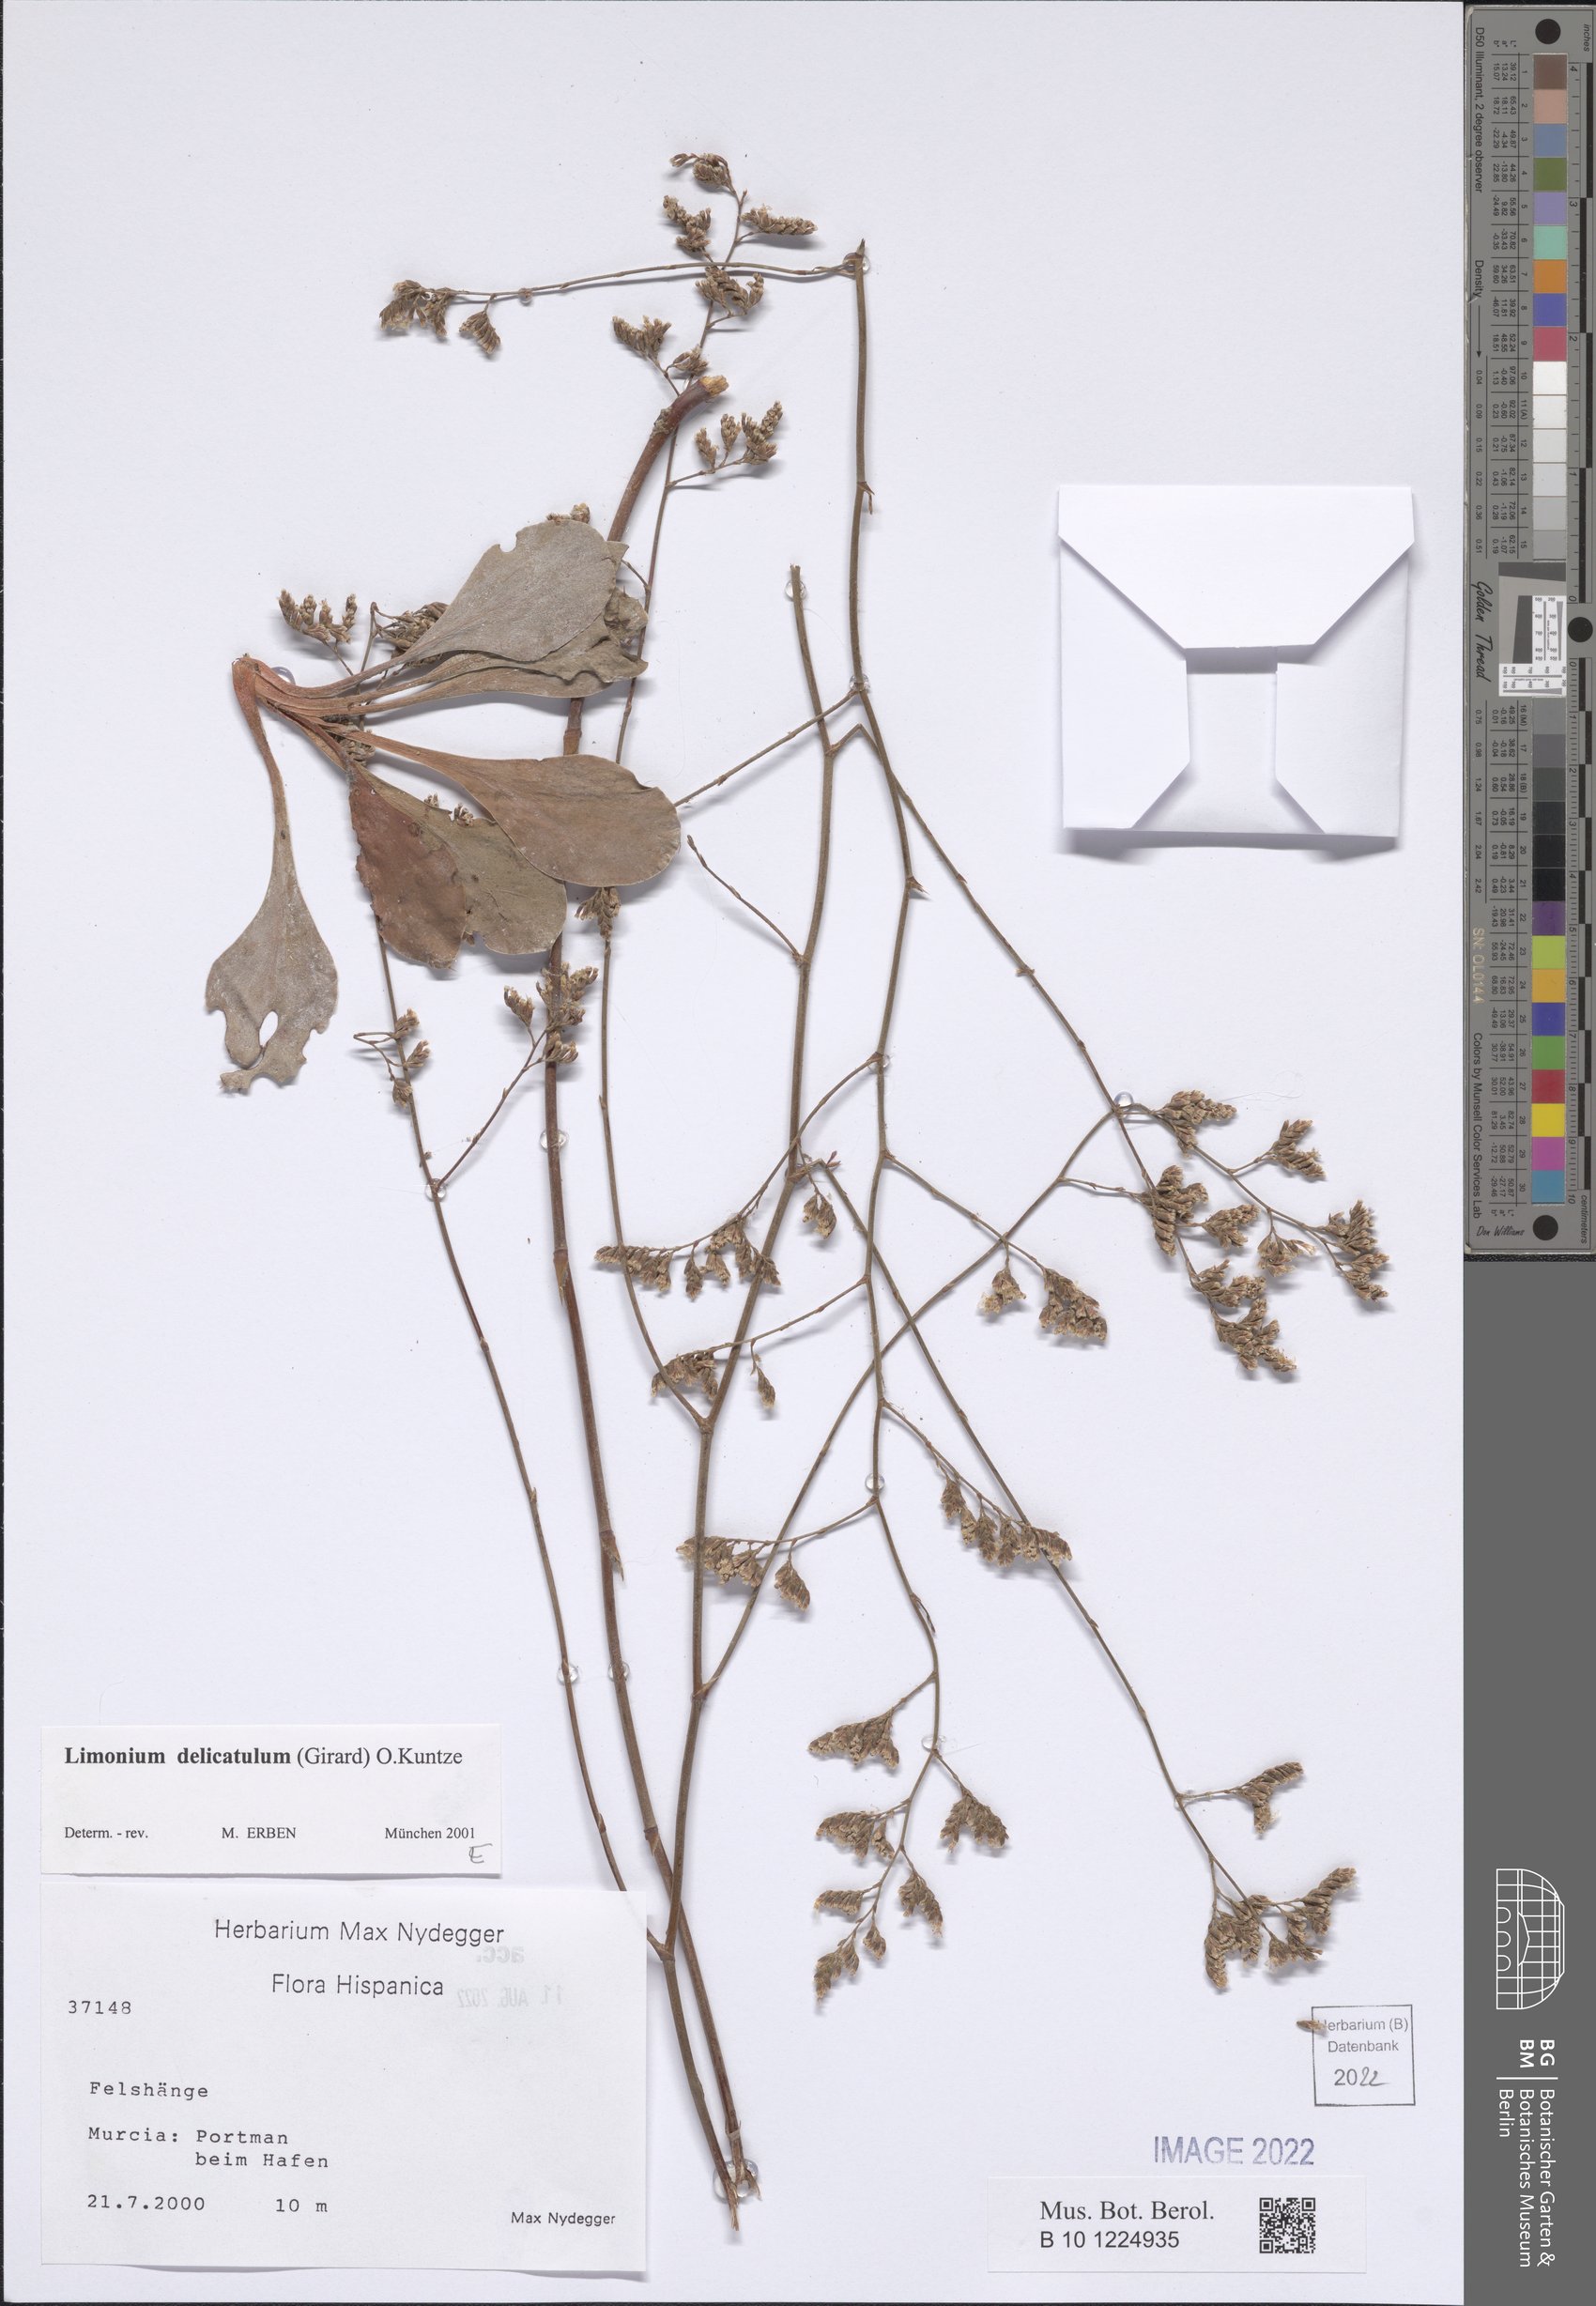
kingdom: Plantae
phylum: Tracheophyta
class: Magnoliopsida
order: Caryophyllales
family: Plumbaginaceae
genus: Limonium
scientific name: Limonium delicatulum
